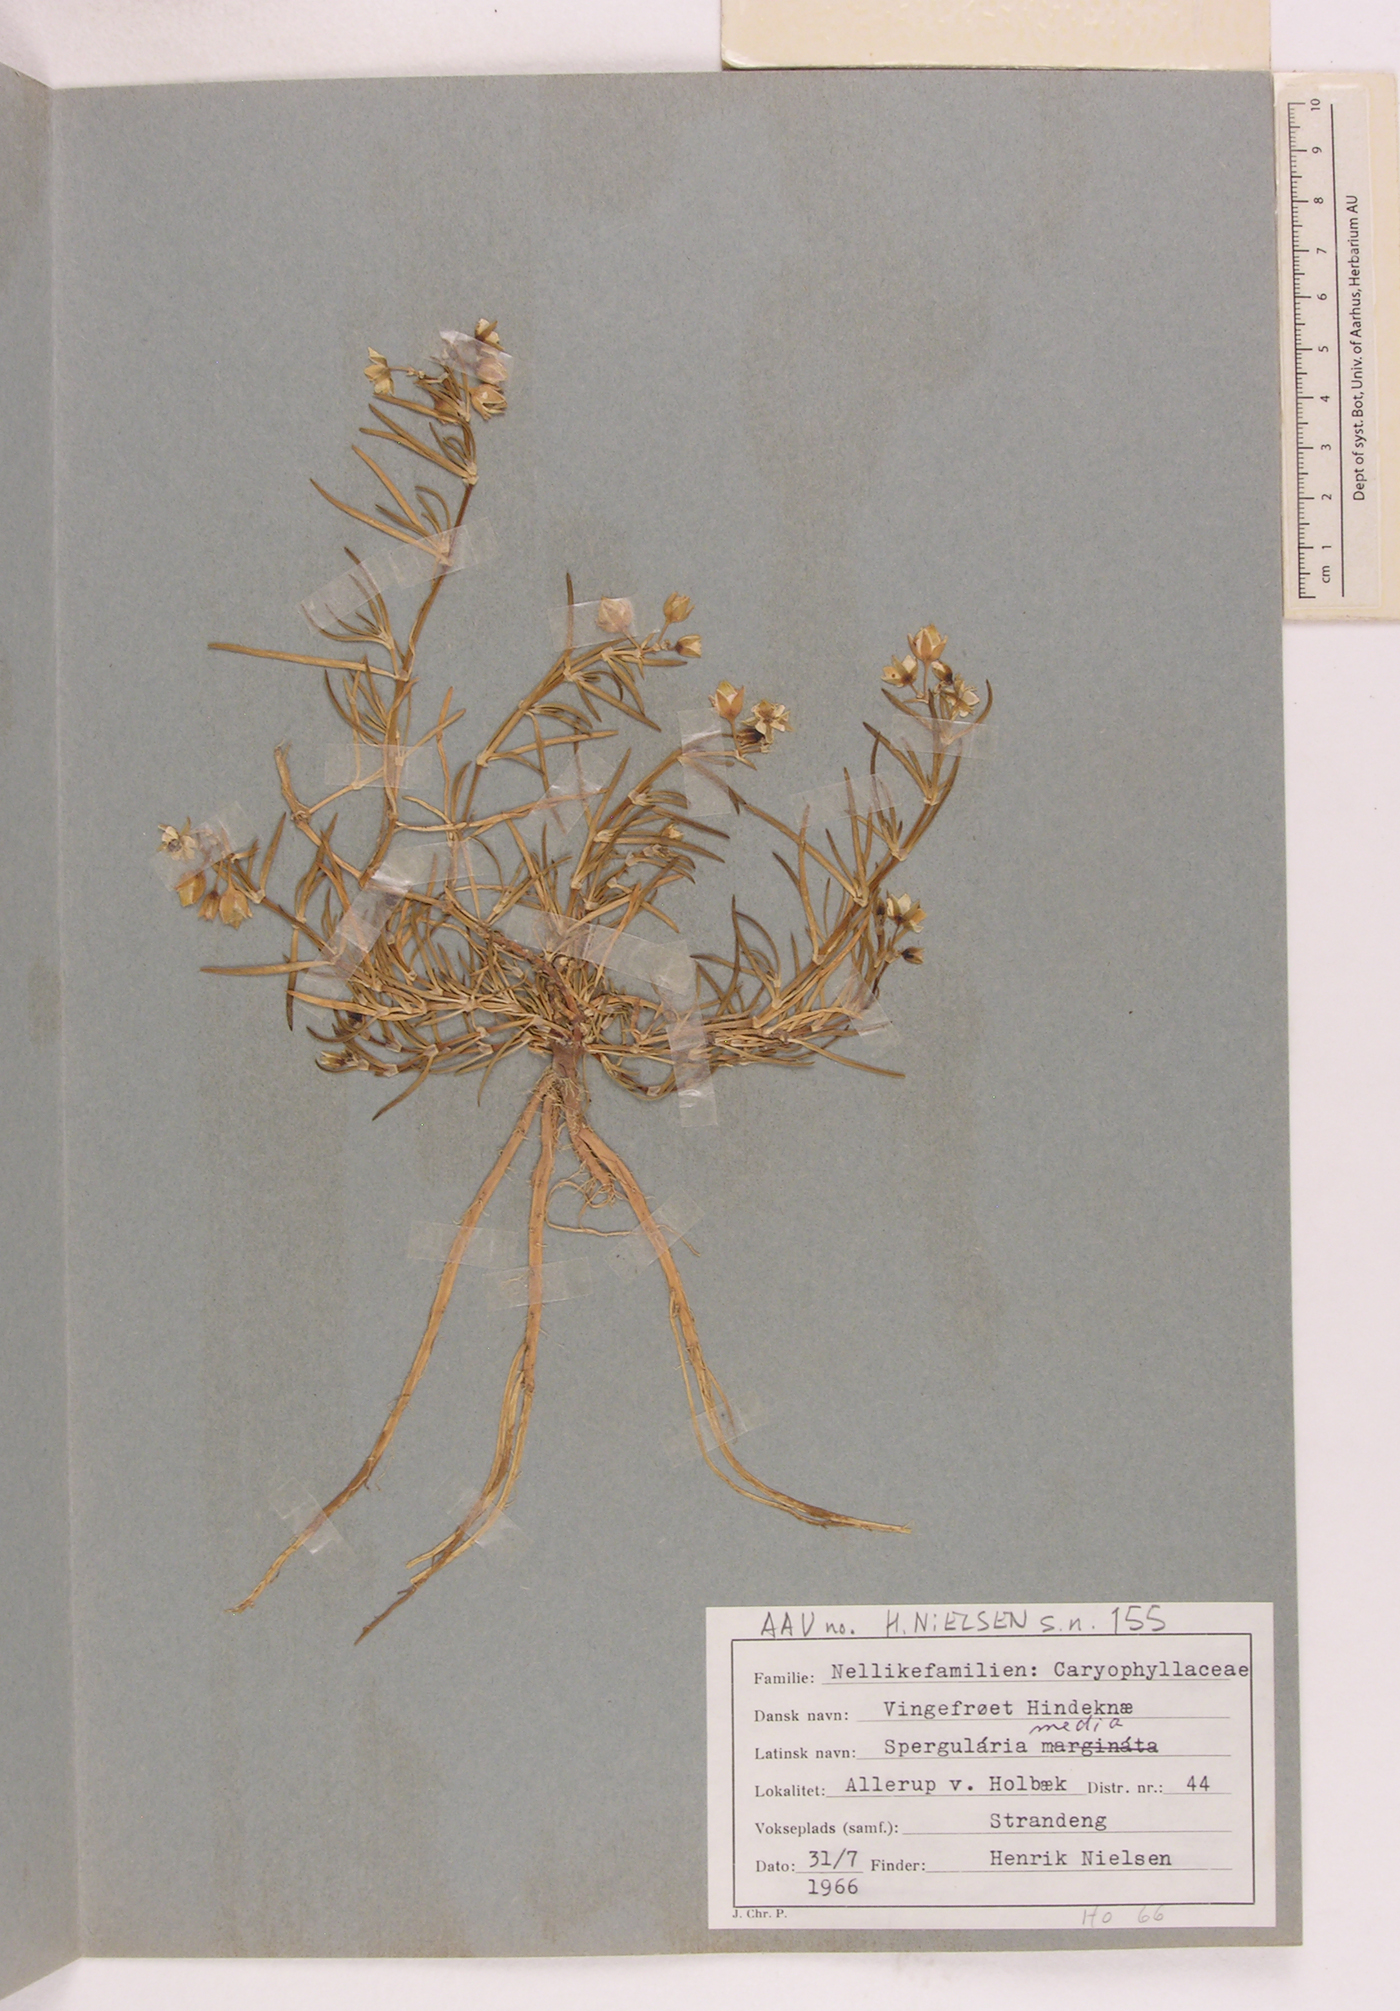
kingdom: Plantae
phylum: Tracheophyta
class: Magnoliopsida
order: Caryophyllales
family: Caryophyllaceae
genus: Spergularia
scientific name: Spergularia media
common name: Greater sea-spurrey
